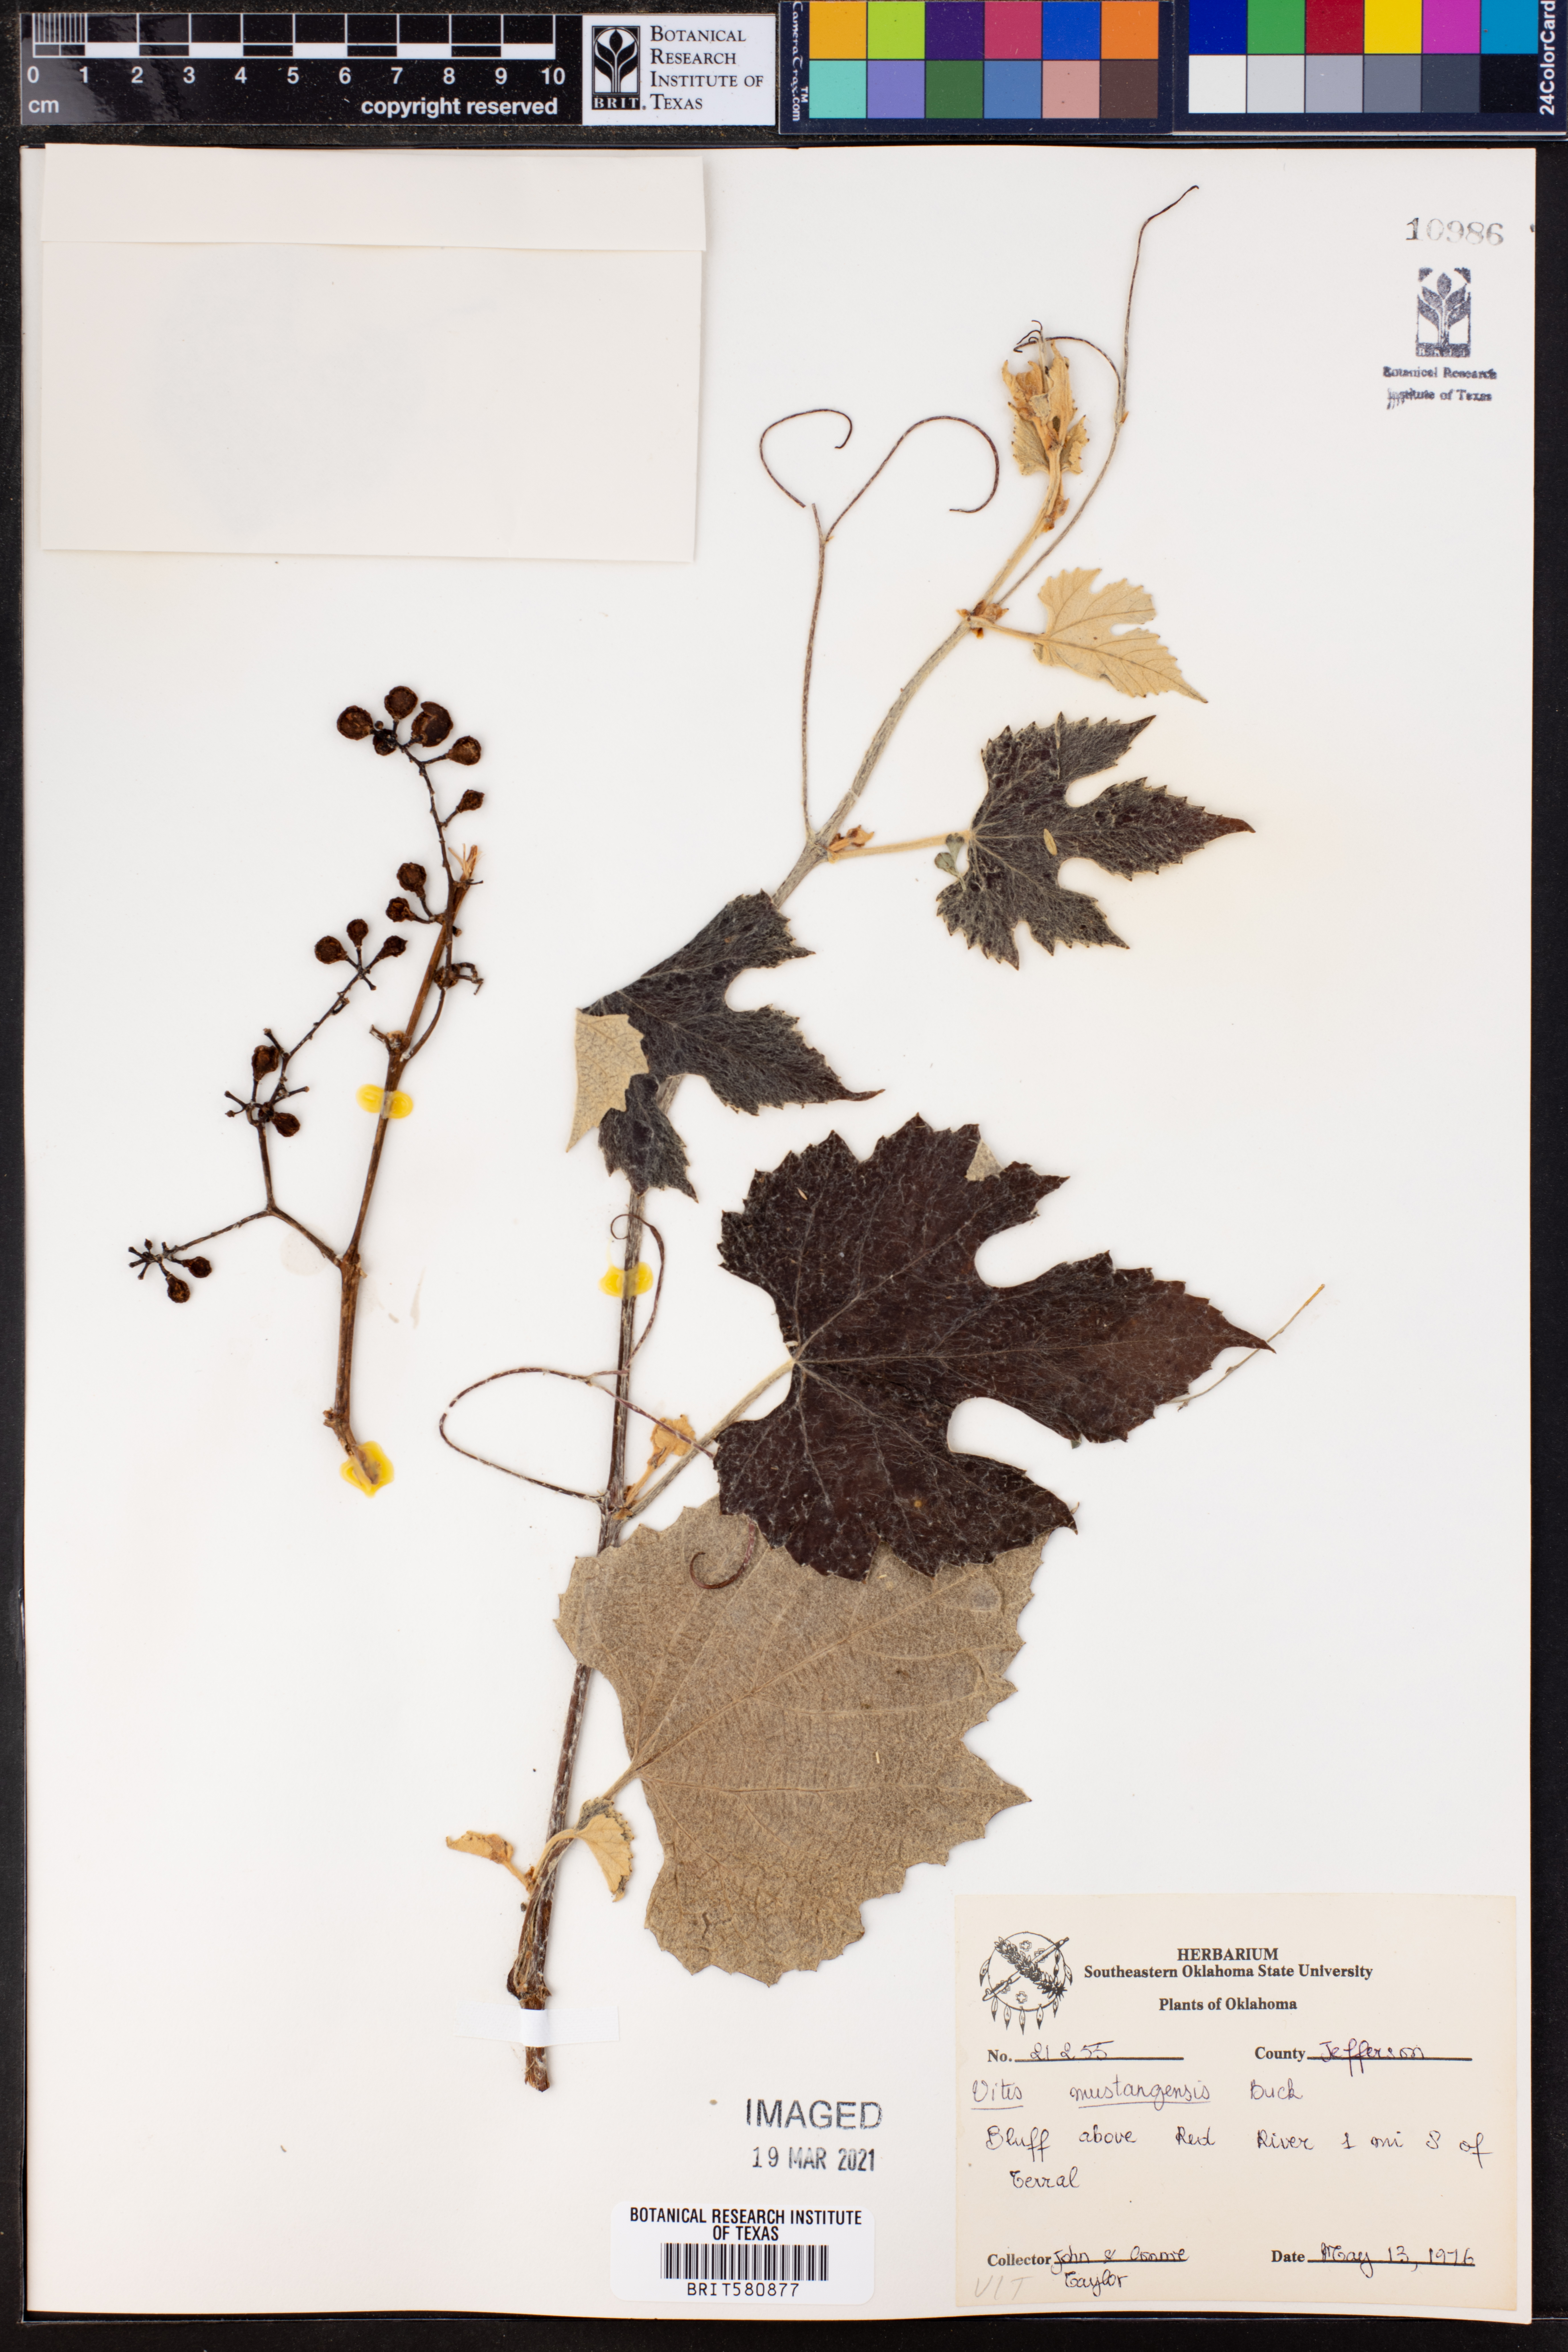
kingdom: Plantae
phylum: Tracheophyta
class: Magnoliopsida
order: Vitales
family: Vitaceae
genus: Vitis
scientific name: Vitis mustangensis
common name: Mustang grape
